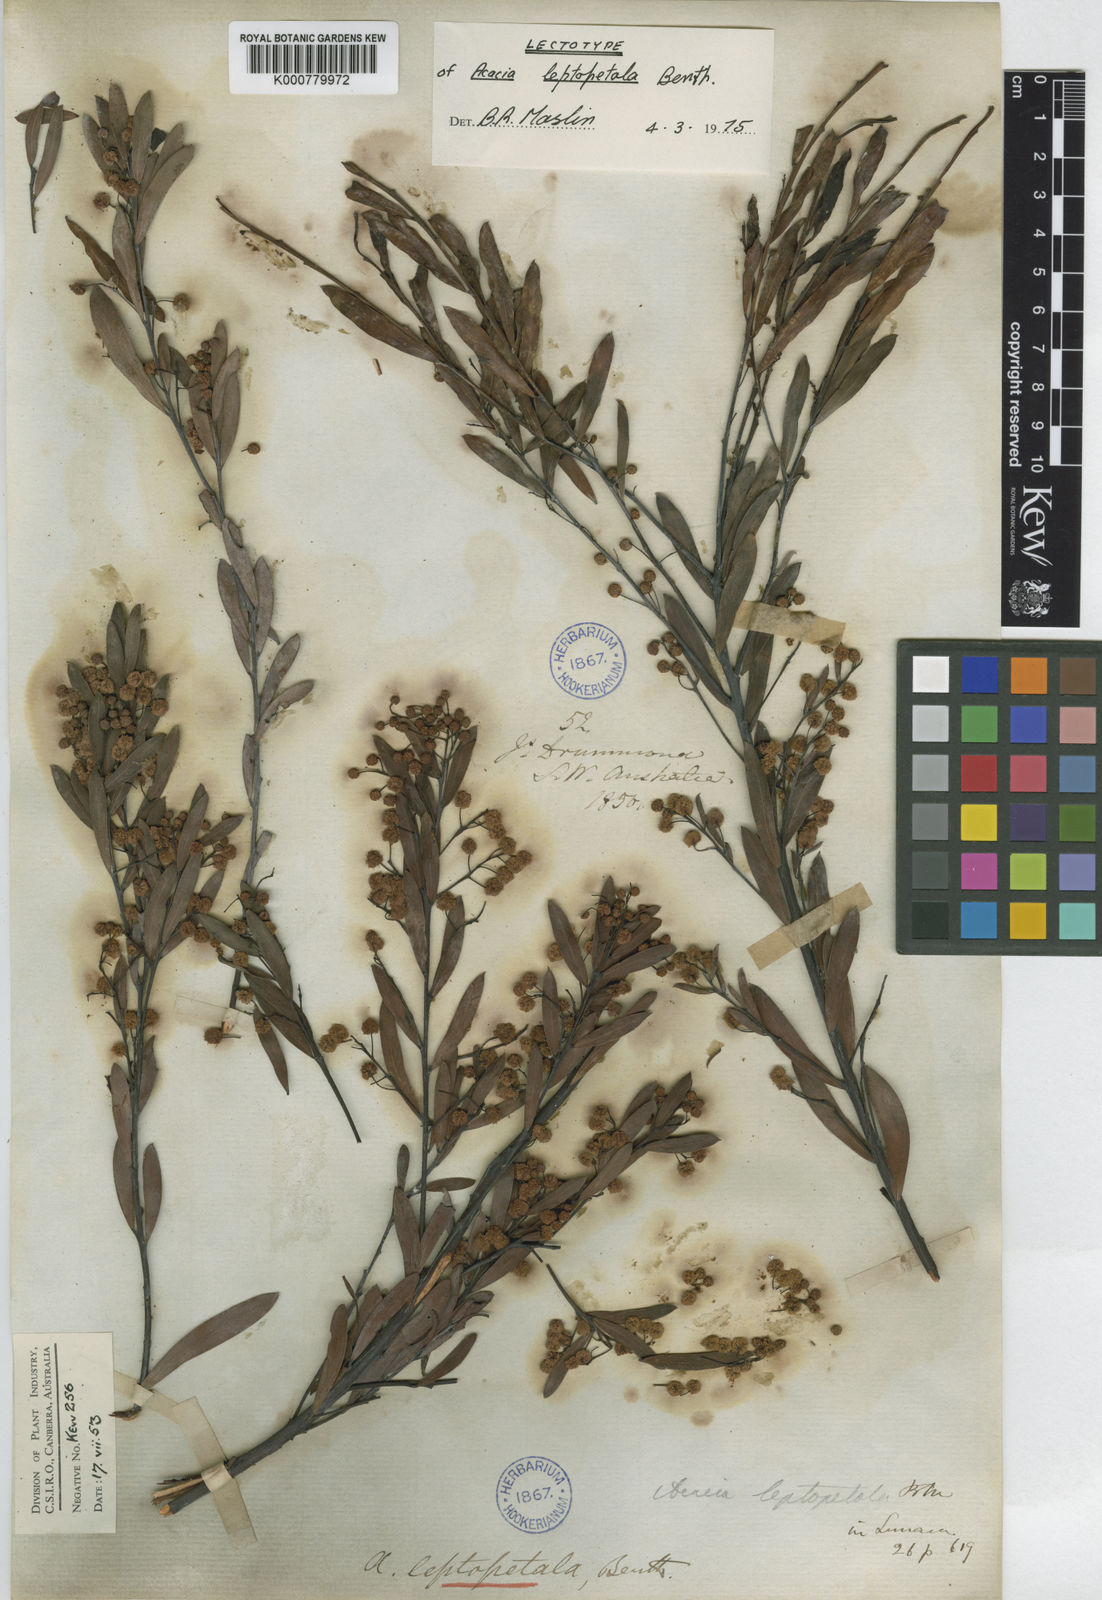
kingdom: Plantae
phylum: Tracheophyta
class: Magnoliopsida
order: Fabales
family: Fabaceae
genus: Acacia
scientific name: Acacia leptopetala
